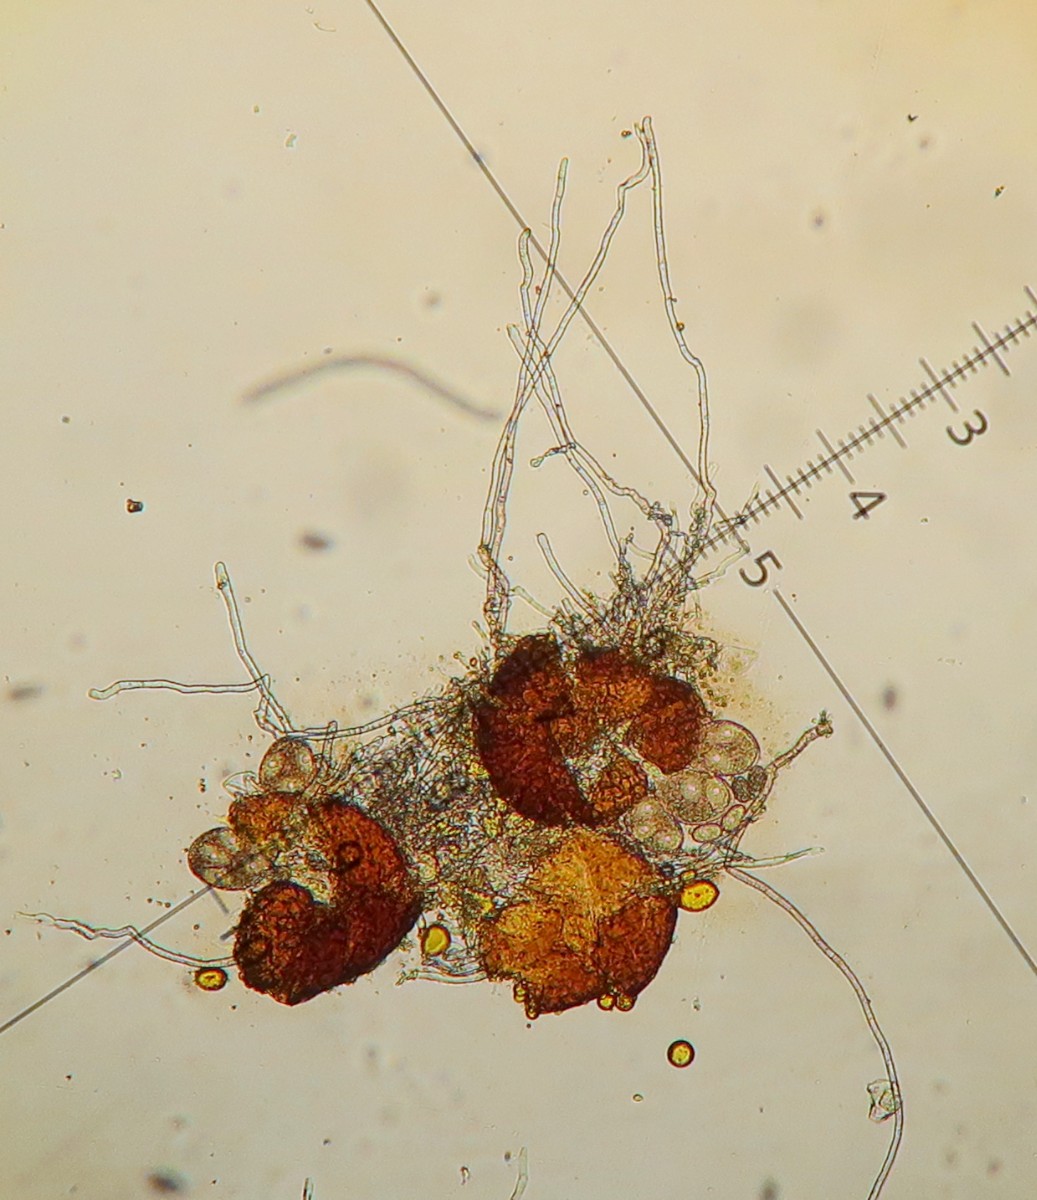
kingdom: Fungi
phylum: Ascomycota
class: Leotiomycetes
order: Helotiales
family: Erysiphaceae
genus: Erysiphe
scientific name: Erysiphe pisi
